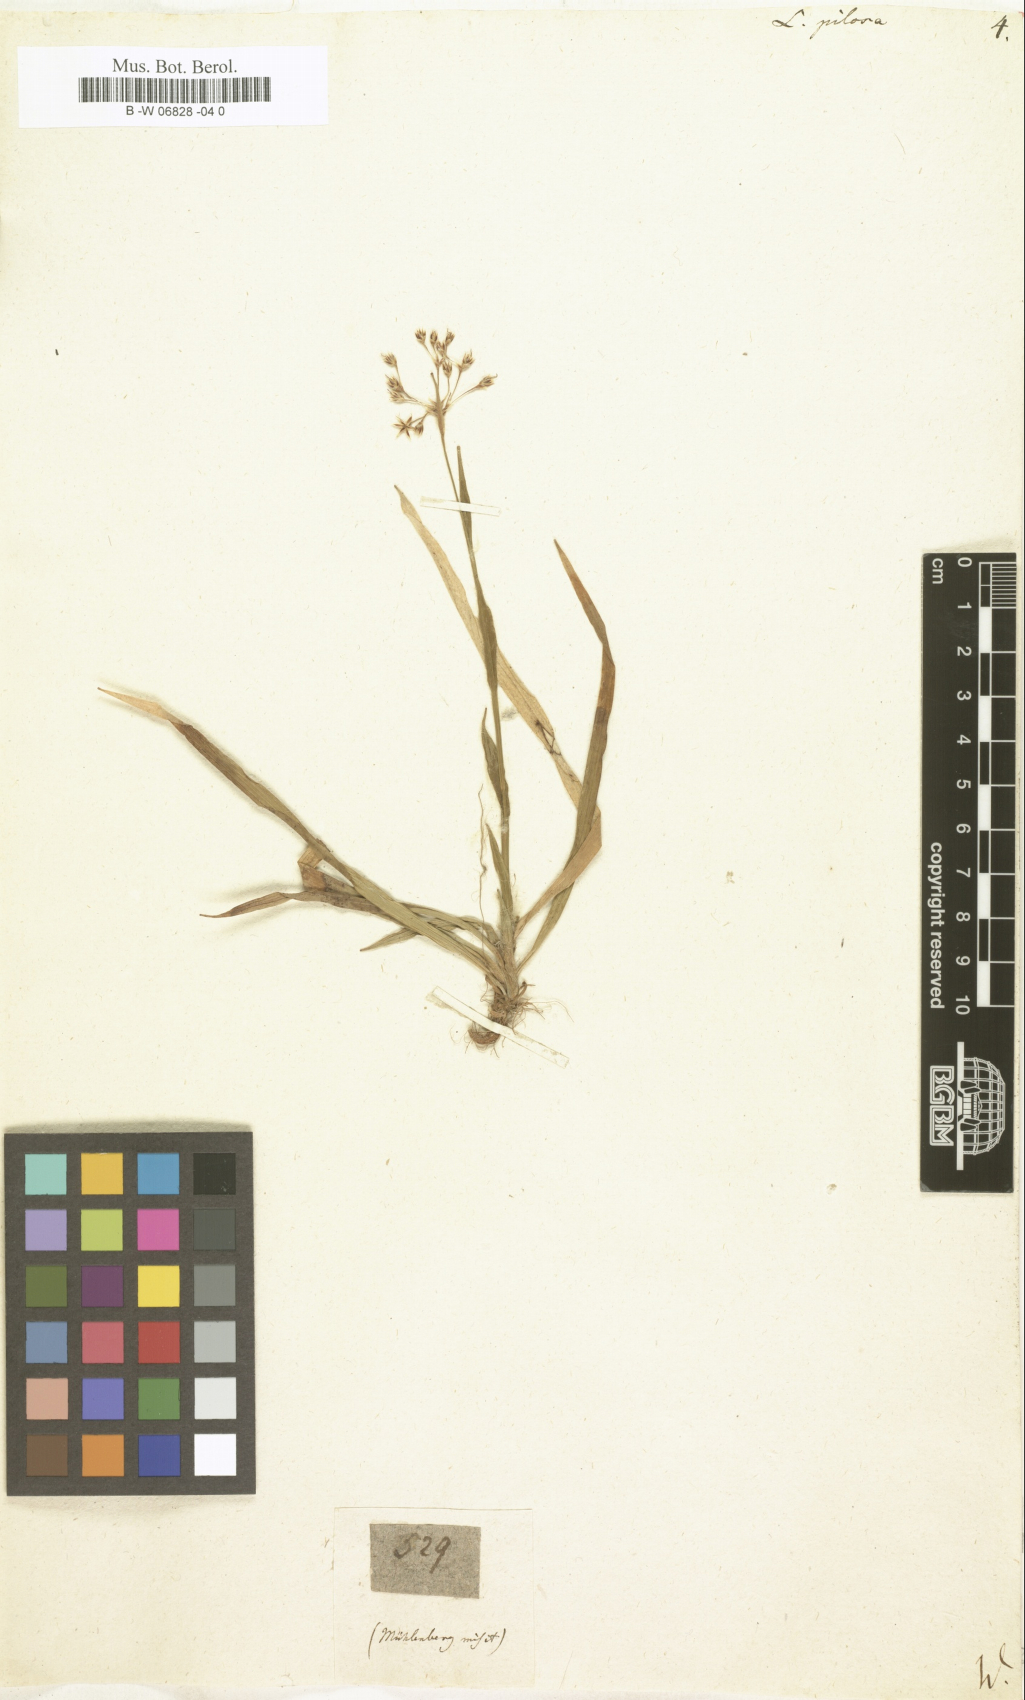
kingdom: Plantae
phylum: Tracheophyta
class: Liliopsida
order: Poales
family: Juncaceae
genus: Luzula
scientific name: Luzula pilosa
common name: Hairy wood-rush
